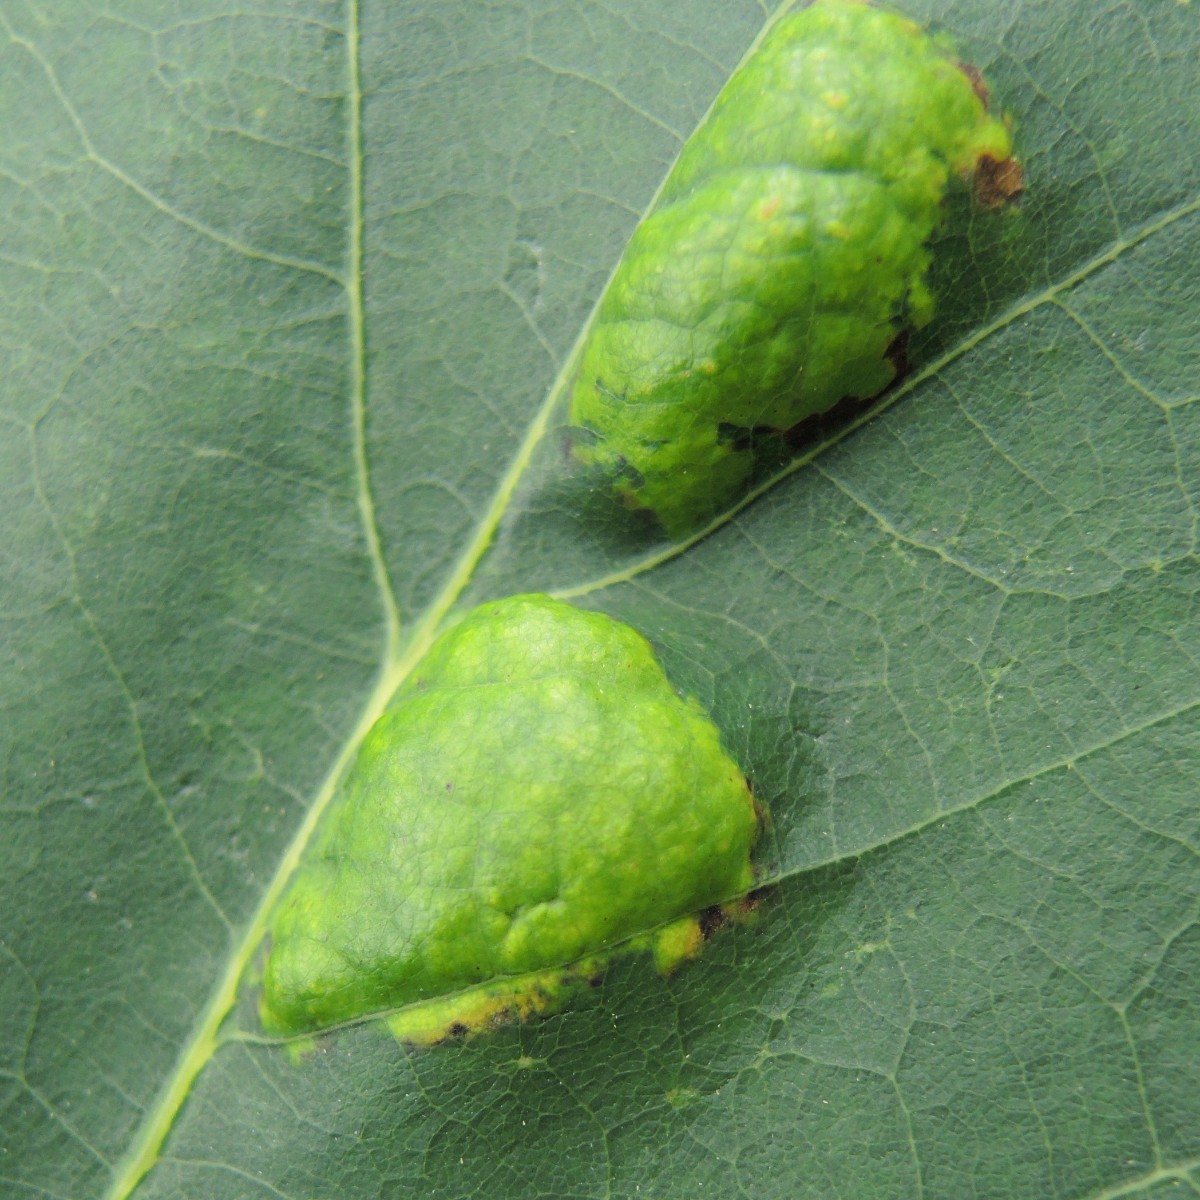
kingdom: Fungi
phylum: Ascomycota
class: Taphrinomycetes
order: Taphrinales
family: Taphrinaceae
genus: Taphrina
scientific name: Taphrina caerulescens
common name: Oak leaf blister
